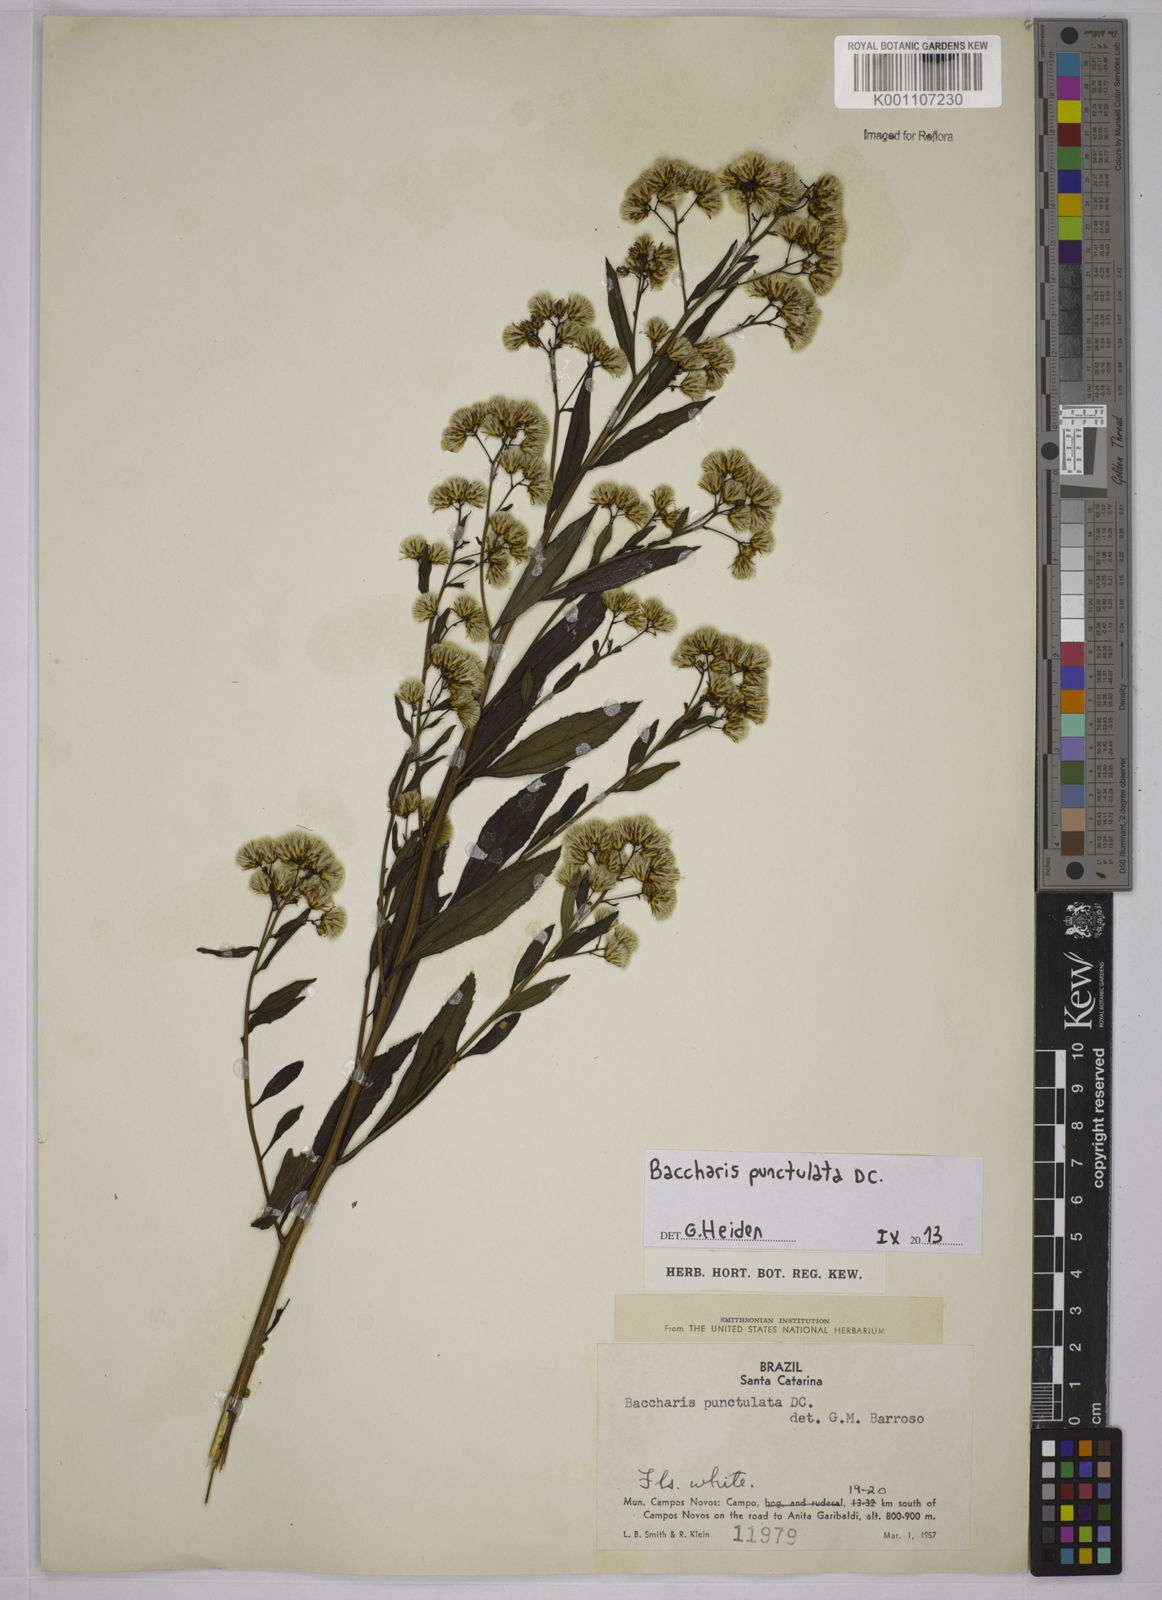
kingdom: Plantae
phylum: Tracheophyta
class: Magnoliopsida
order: Asterales
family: Asteraceae
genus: Baccharis
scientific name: Baccharis punctulata
